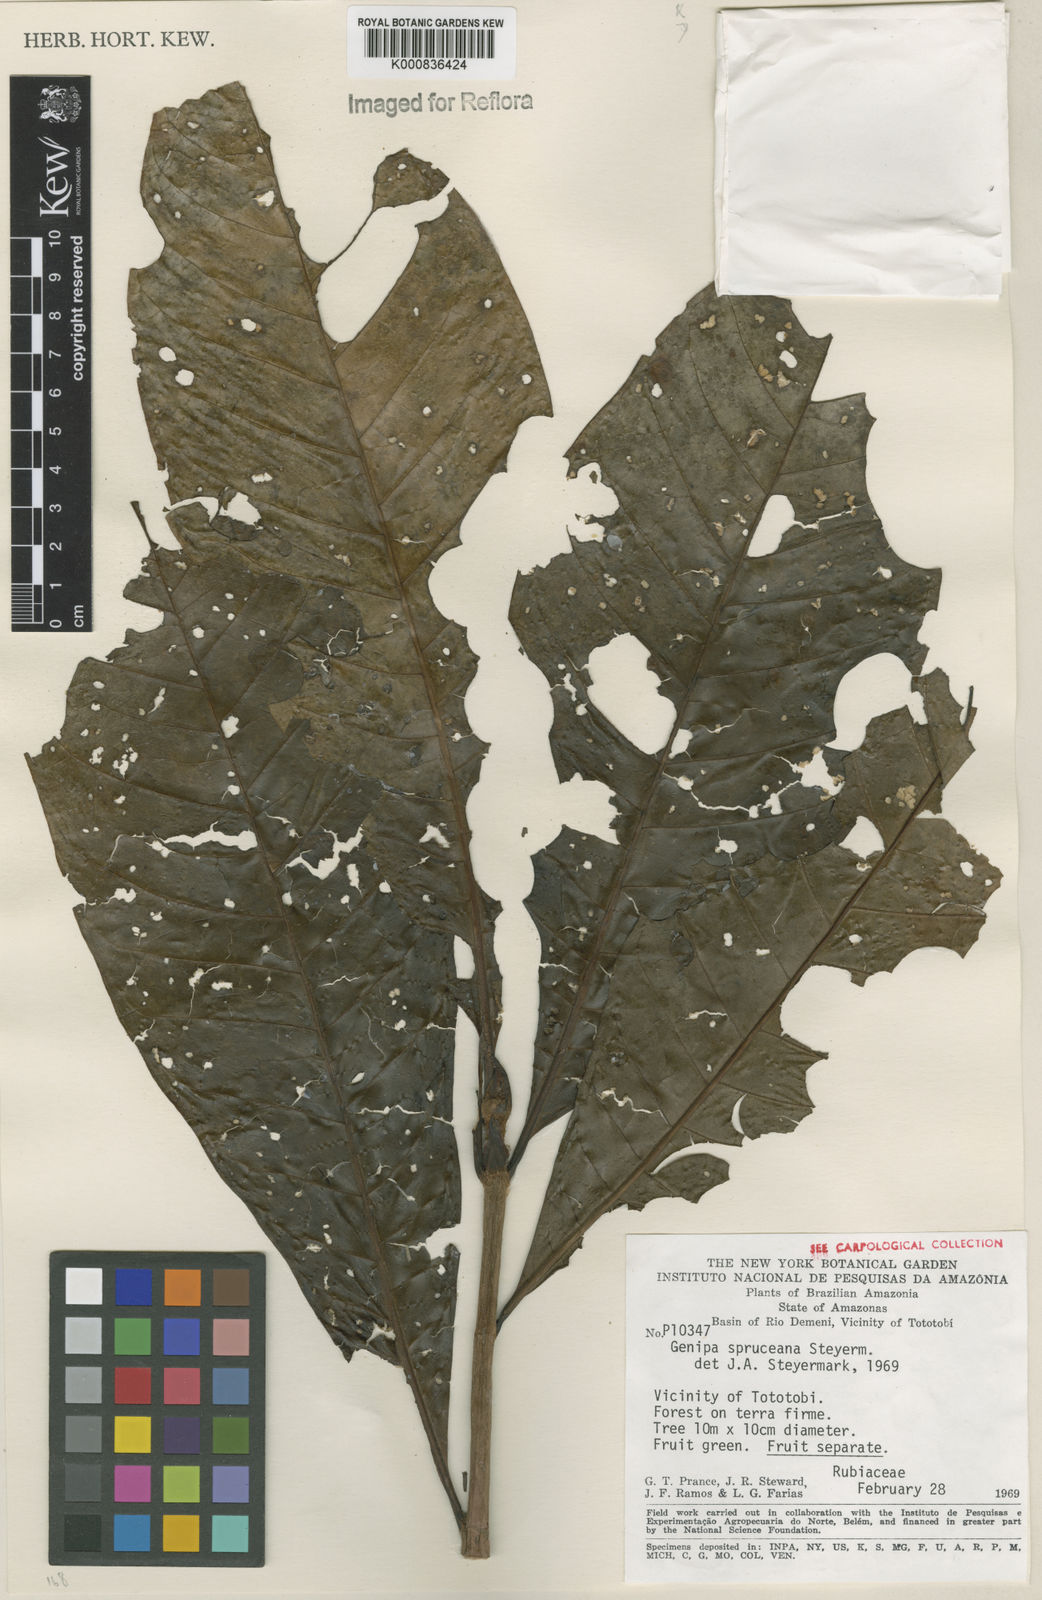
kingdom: Plantae
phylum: Tracheophyta
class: Magnoliopsida
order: Gentianales
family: Rubiaceae
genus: Genipa
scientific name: Genipa americana
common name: Genipap
